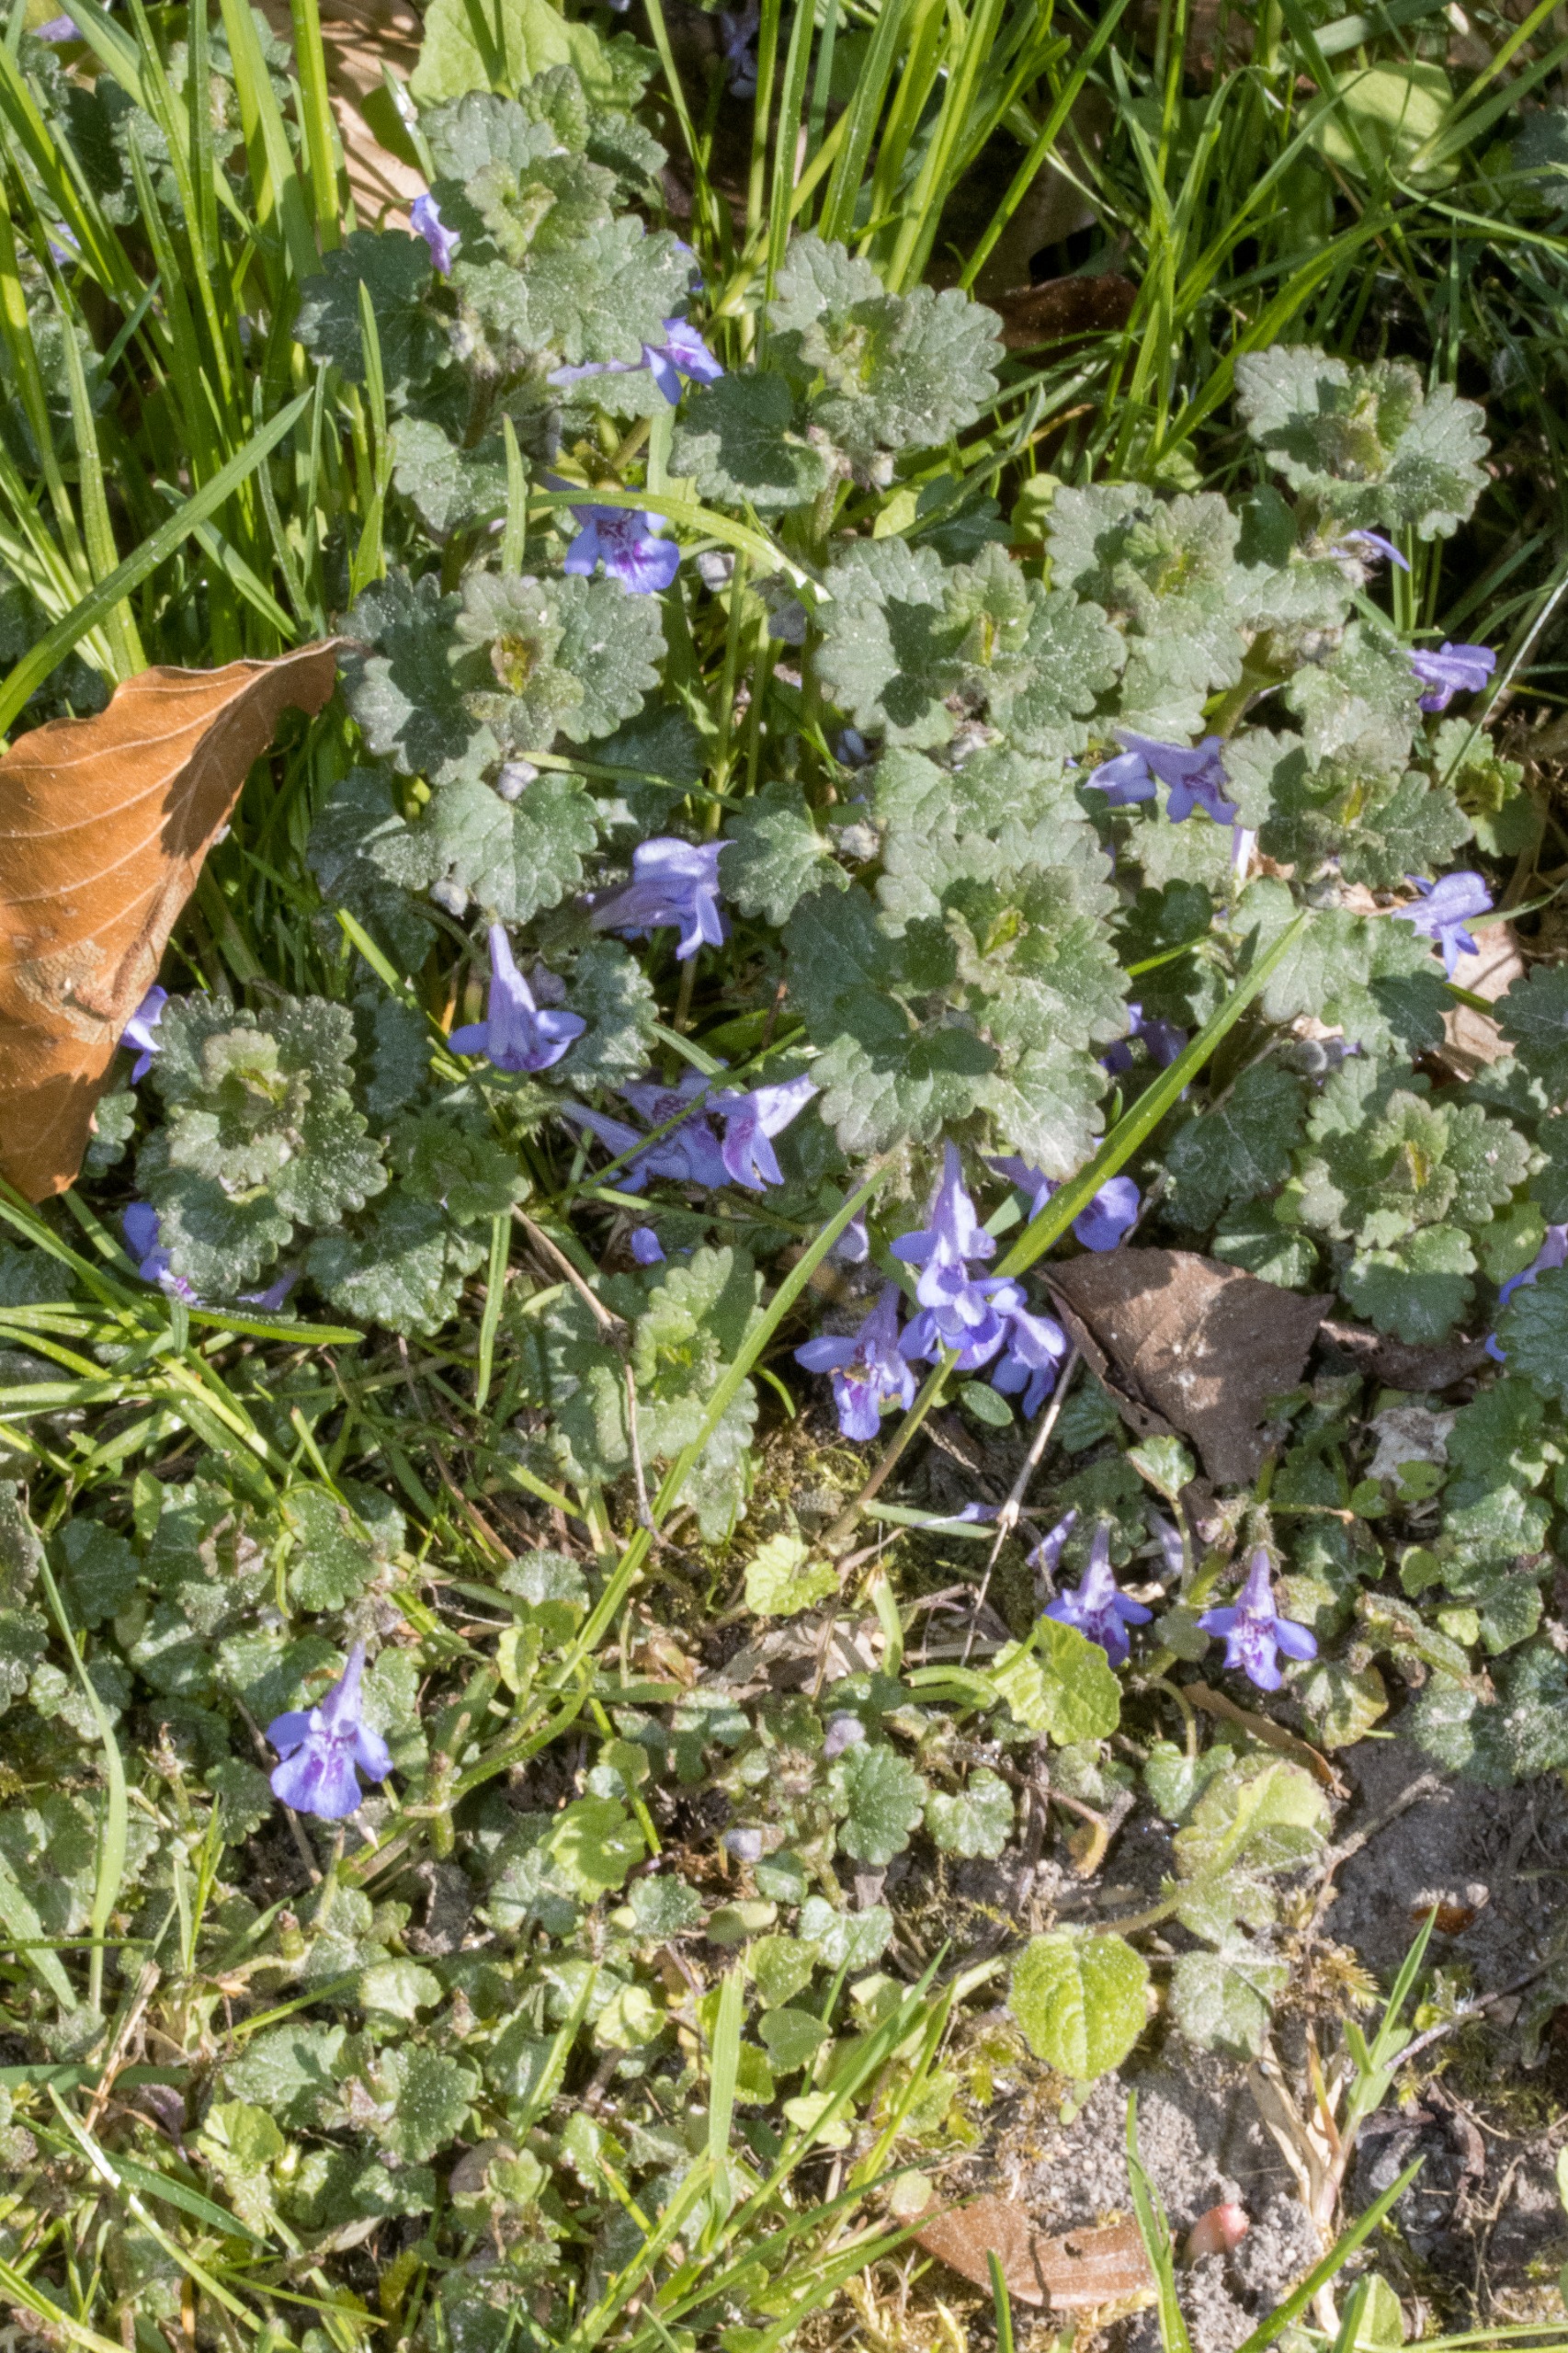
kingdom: Plantae
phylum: Tracheophyta
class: Magnoliopsida
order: Lamiales
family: Lamiaceae
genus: Glechoma
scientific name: Glechoma hederacea
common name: Korsknap
